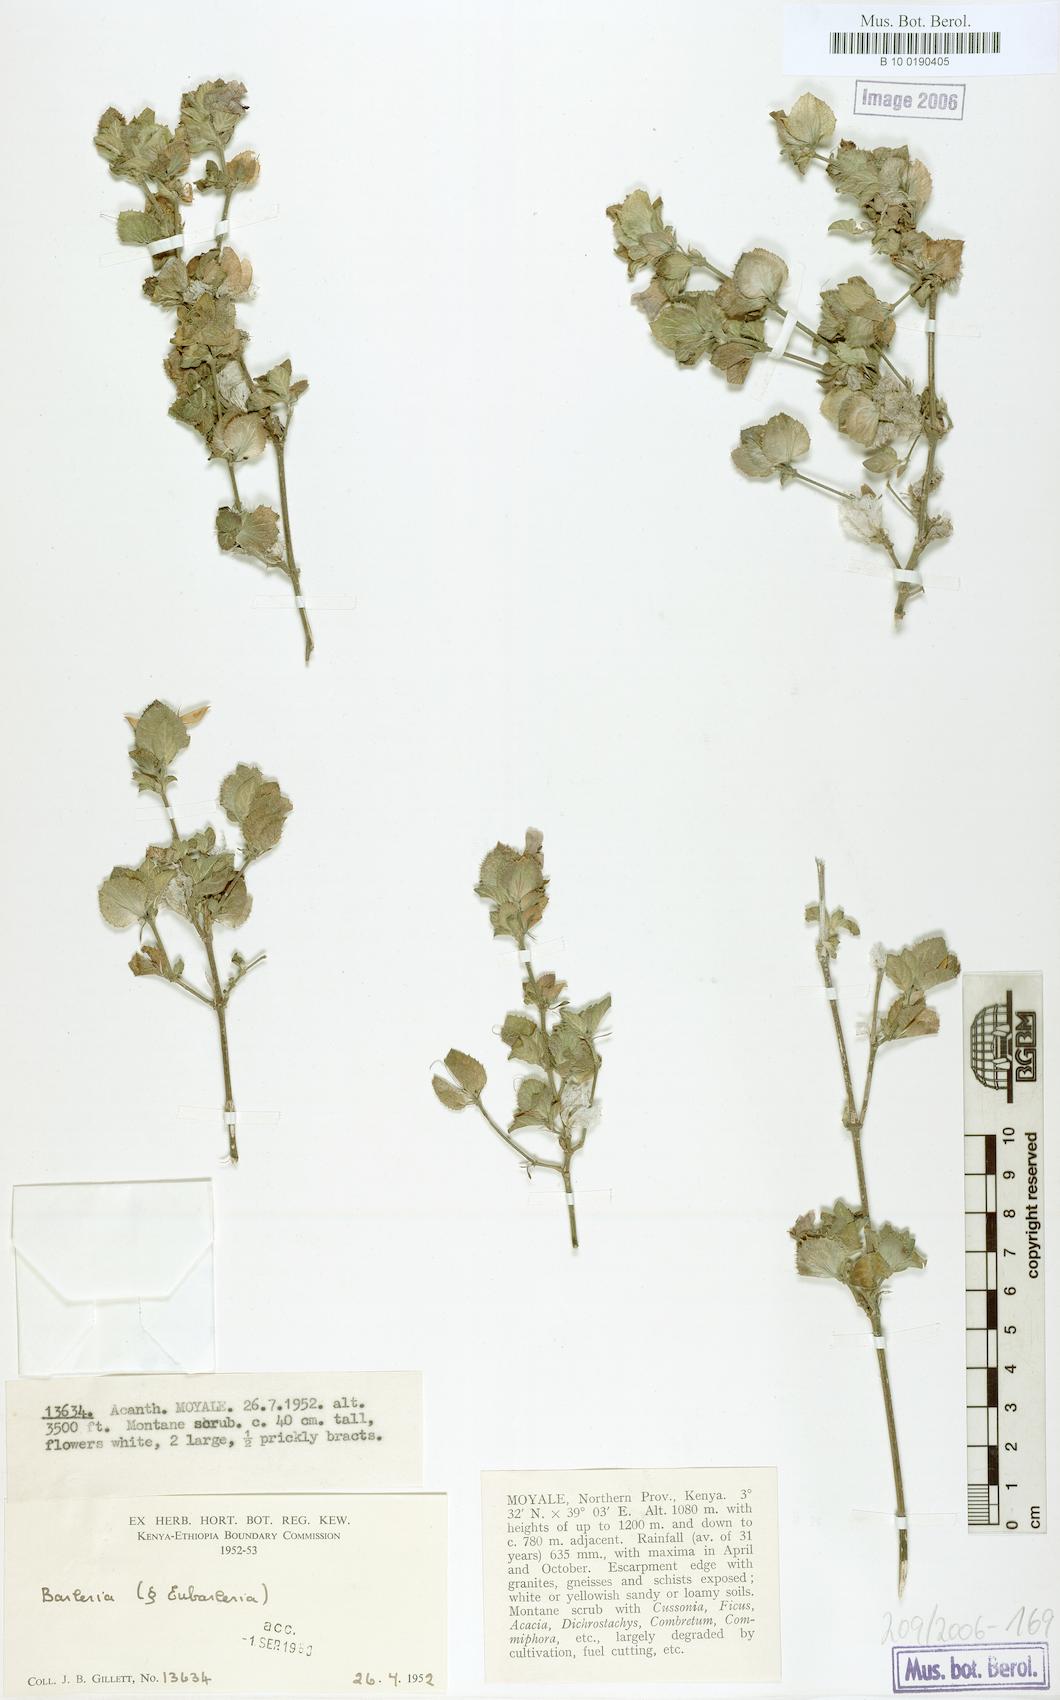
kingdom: Plantae
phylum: Tracheophyta
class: Magnoliopsida
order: Lamiales
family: Acanthaceae
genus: Barleria
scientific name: Barleria
